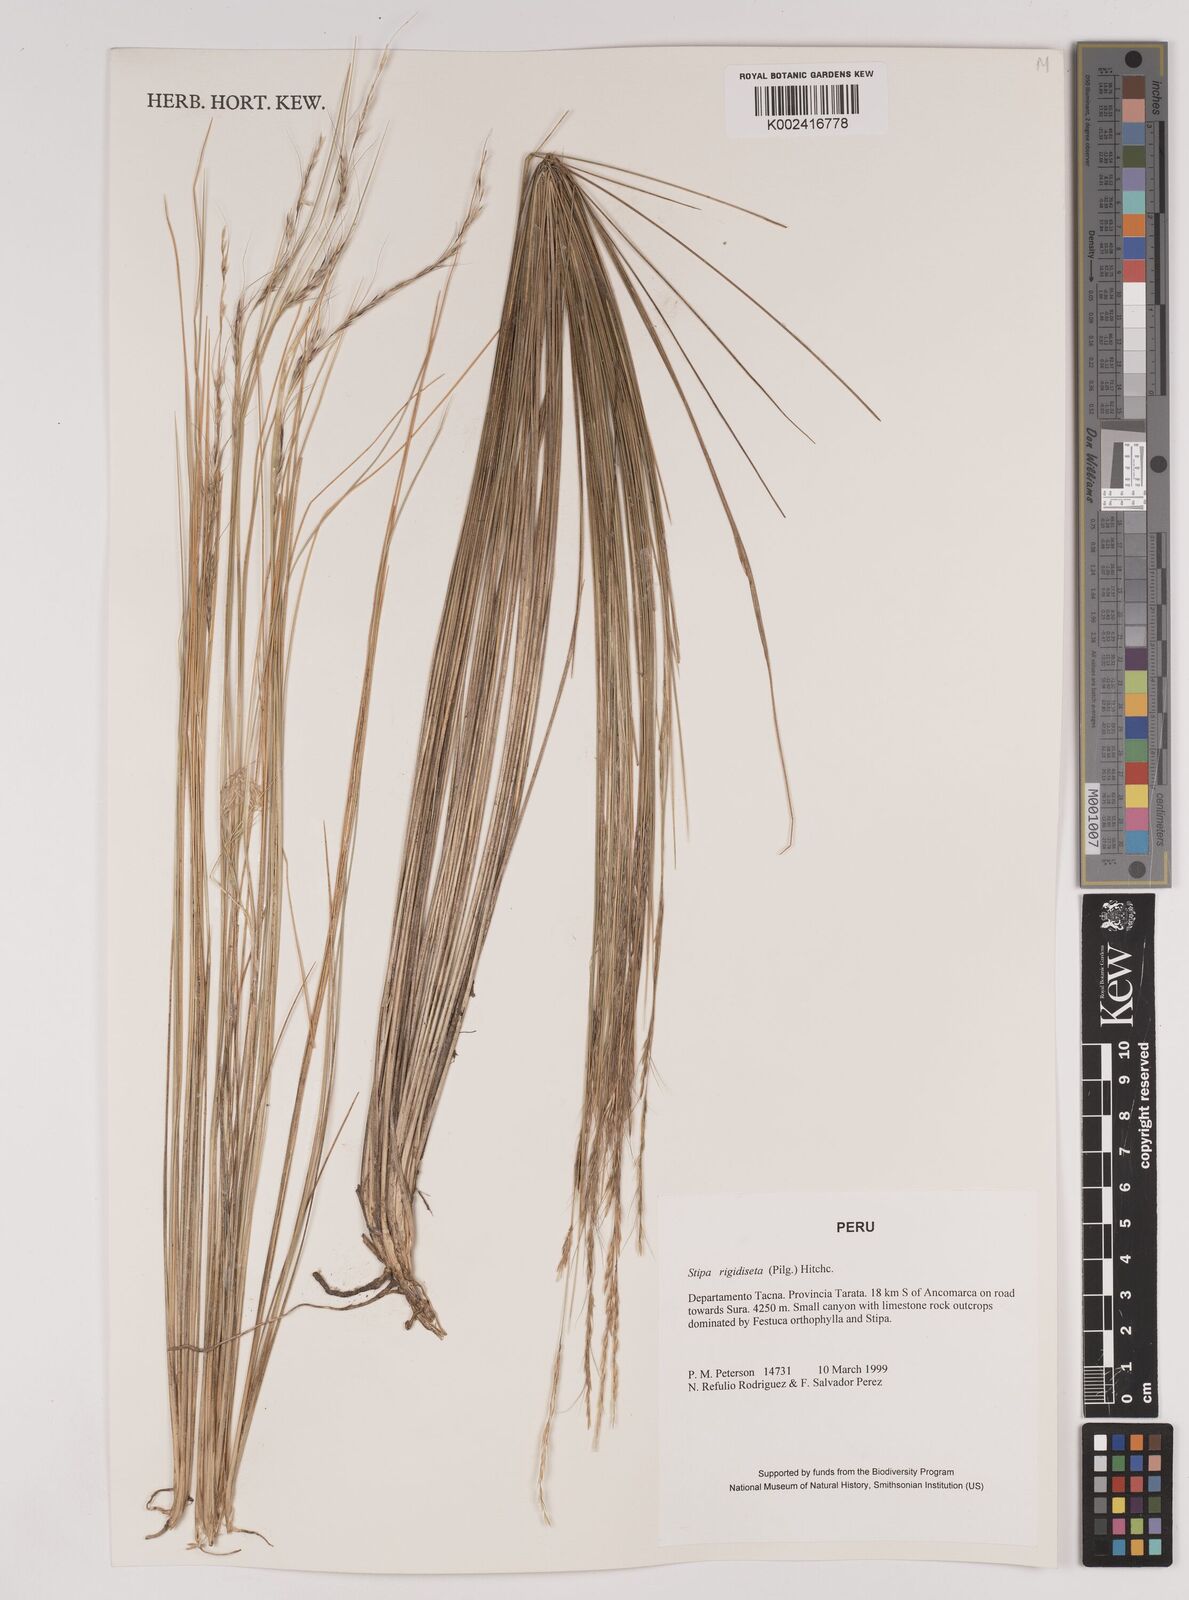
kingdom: Plantae
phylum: Tracheophyta
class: Liliopsida
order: Poales
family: Poaceae
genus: Stipa
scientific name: Stipa rigidiseta
